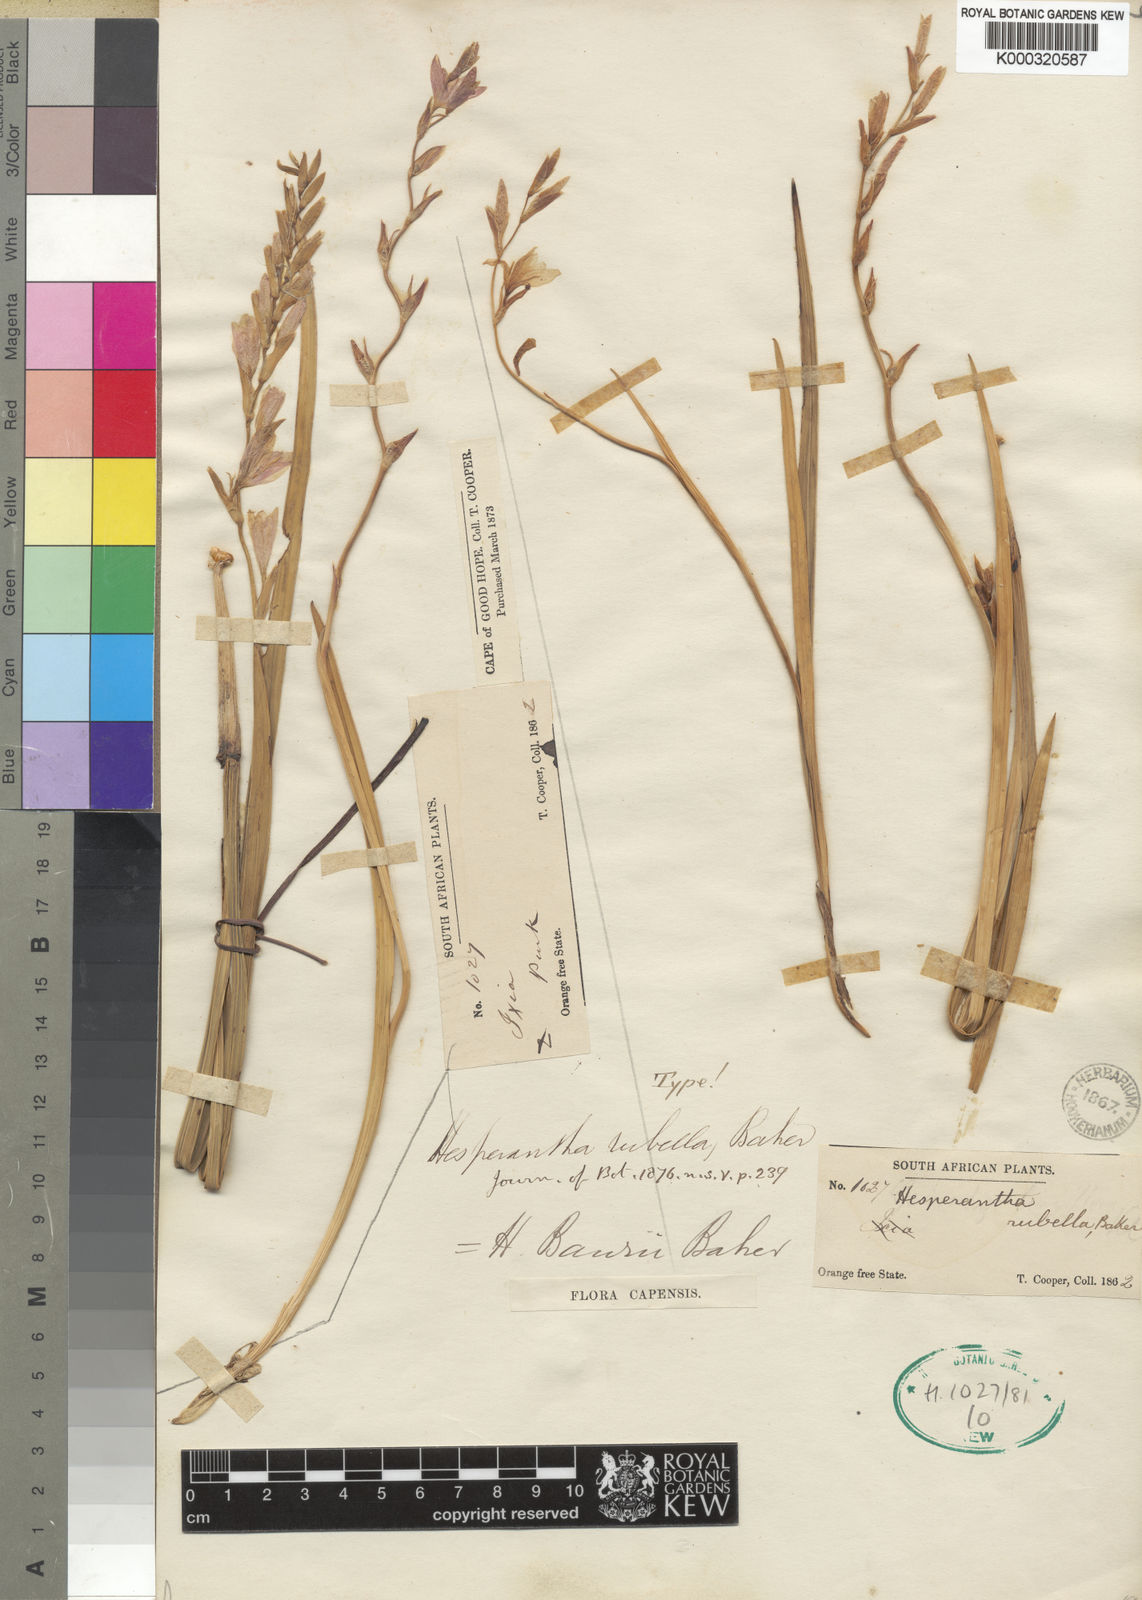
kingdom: Plantae
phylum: Tracheophyta
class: Liliopsida
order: Asparagales
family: Iridaceae
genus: Hesperantha
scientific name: Hesperantha baurii
